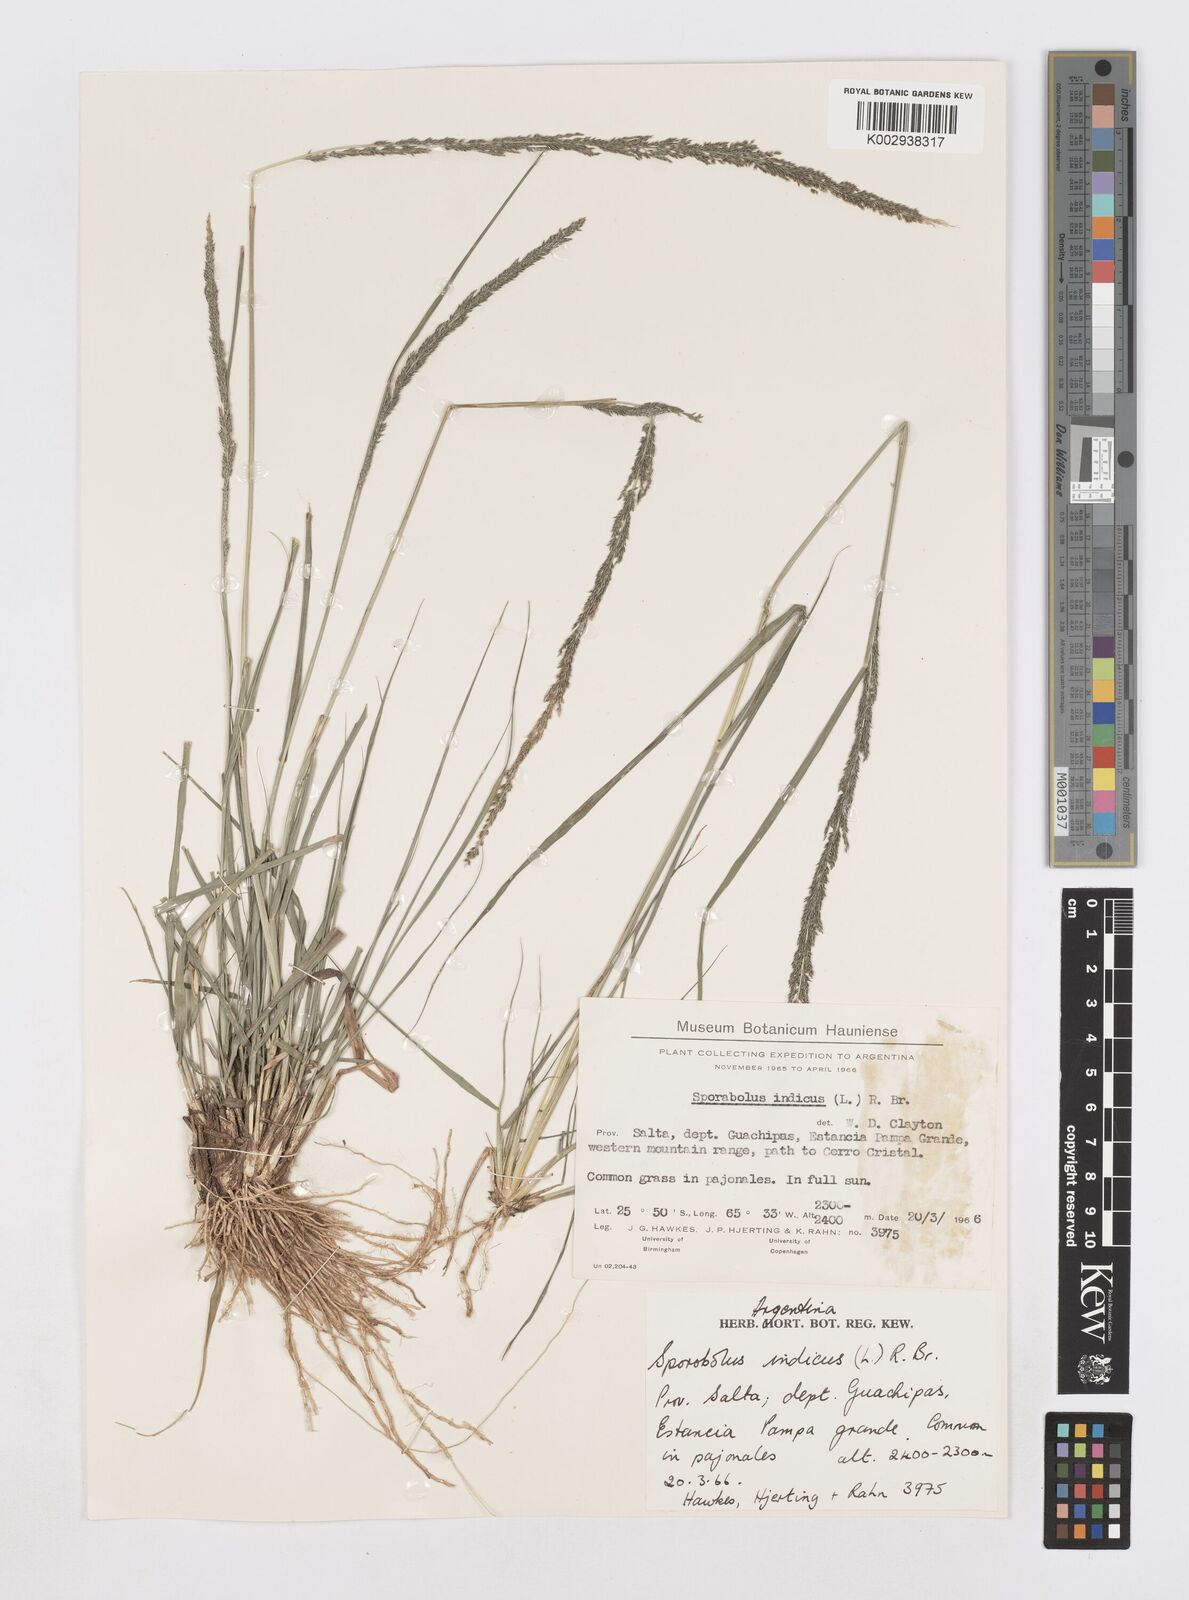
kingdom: Plantae
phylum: Tracheophyta
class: Liliopsida
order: Poales
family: Poaceae
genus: Sporobolus
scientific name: Sporobolus indicus
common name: Smut grass
